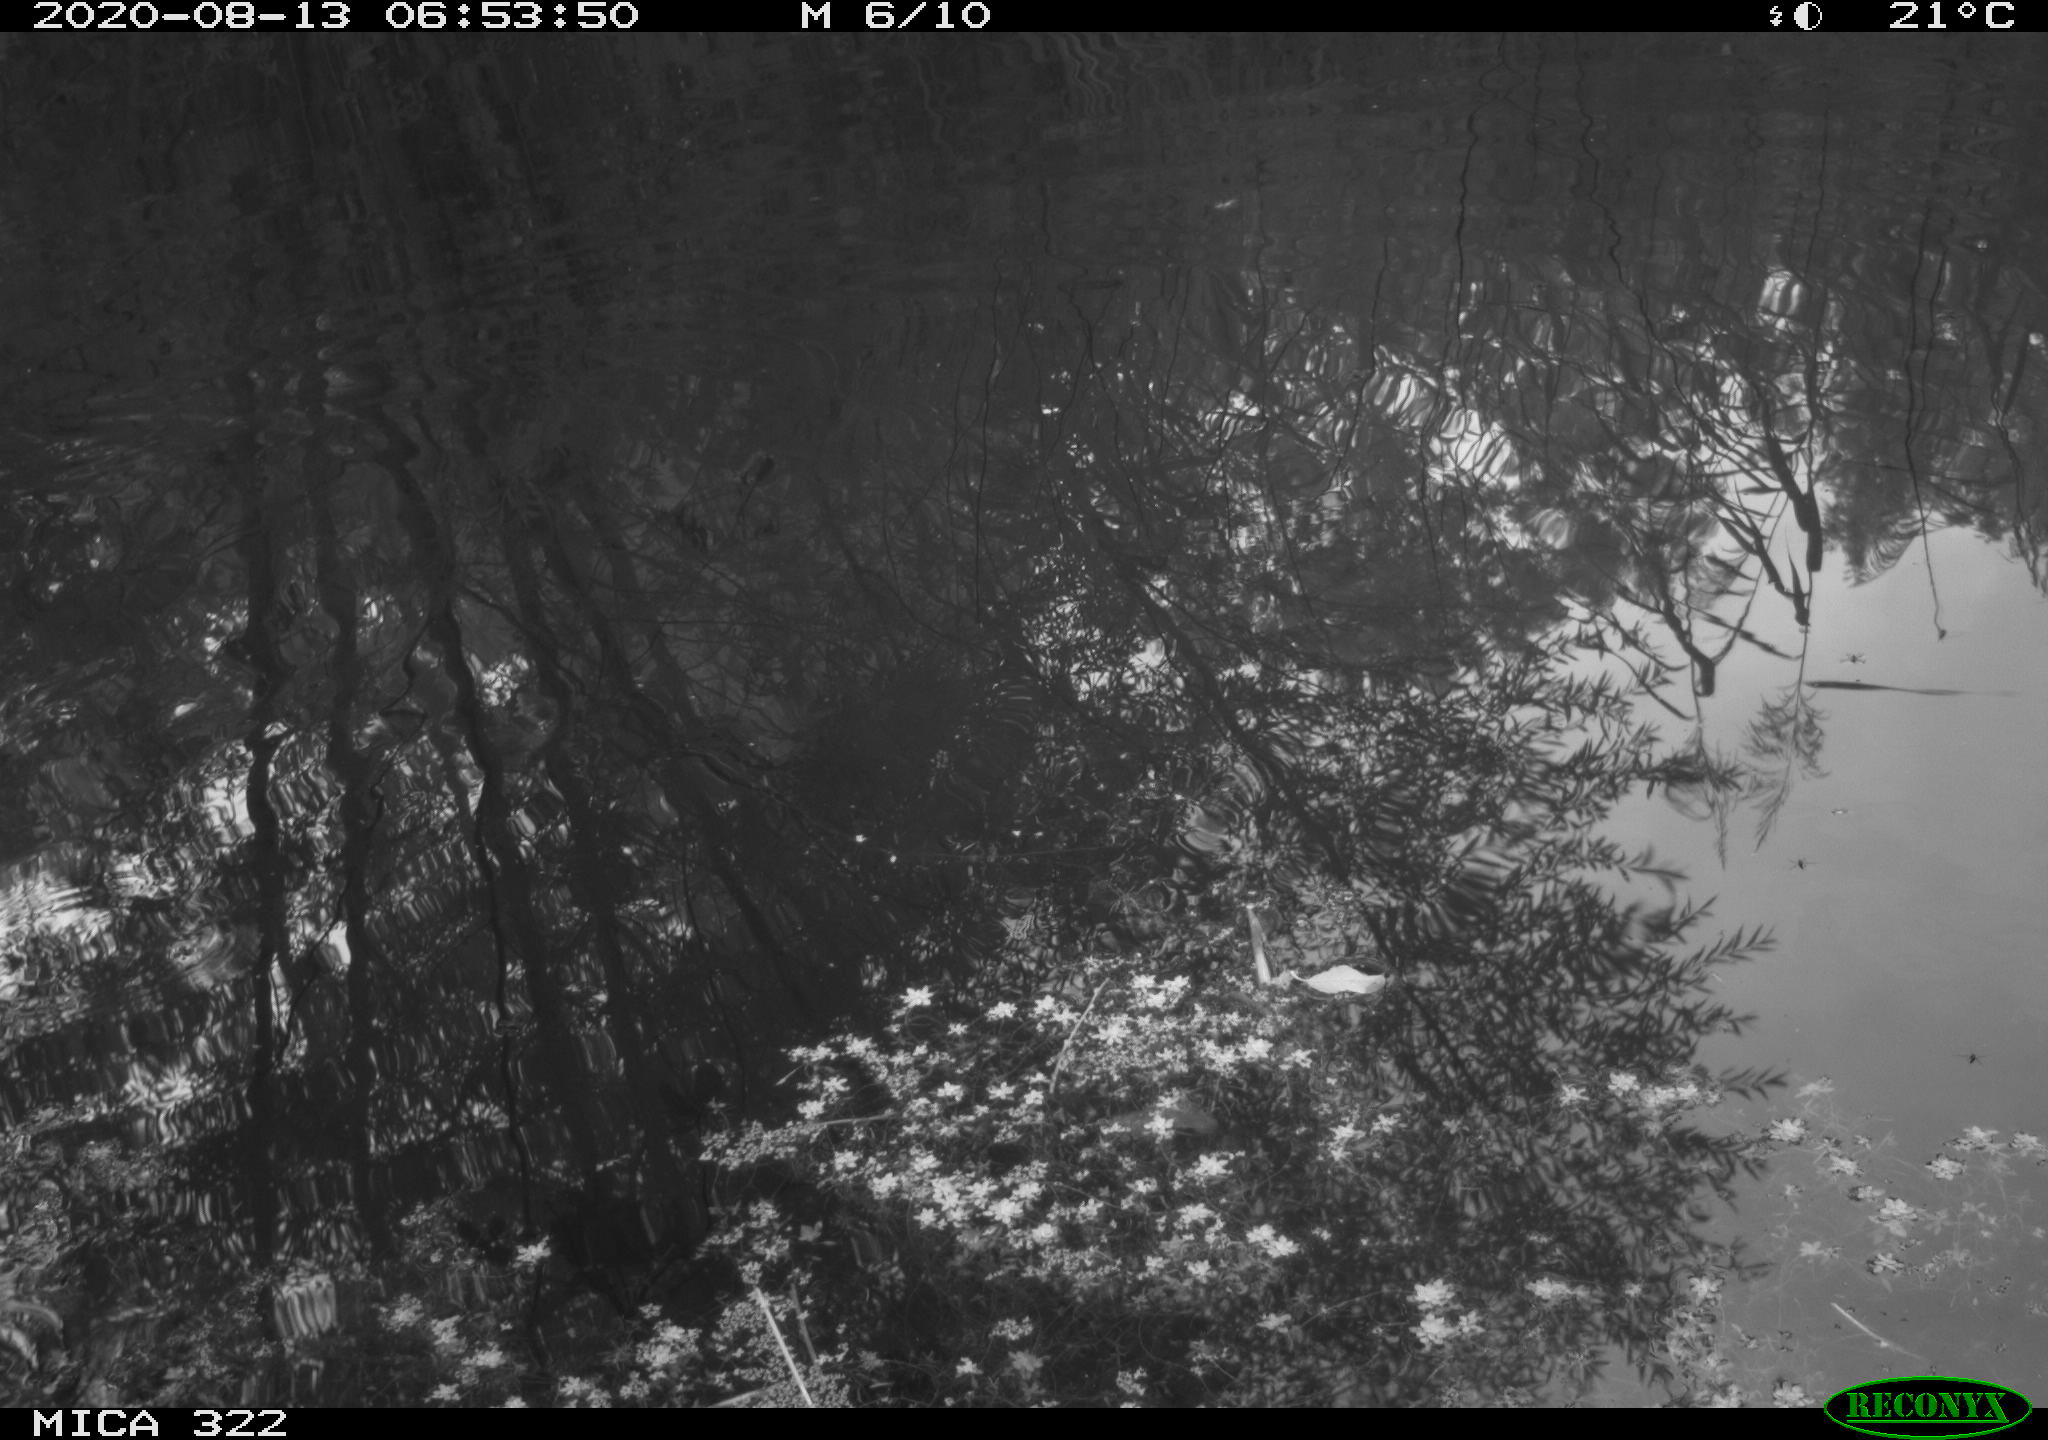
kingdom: Animalia
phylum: Chordata
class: Aves
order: Gruiformes
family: Rallidae
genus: Gallinula
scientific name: Gallinula chloropus
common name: Common moorhen
